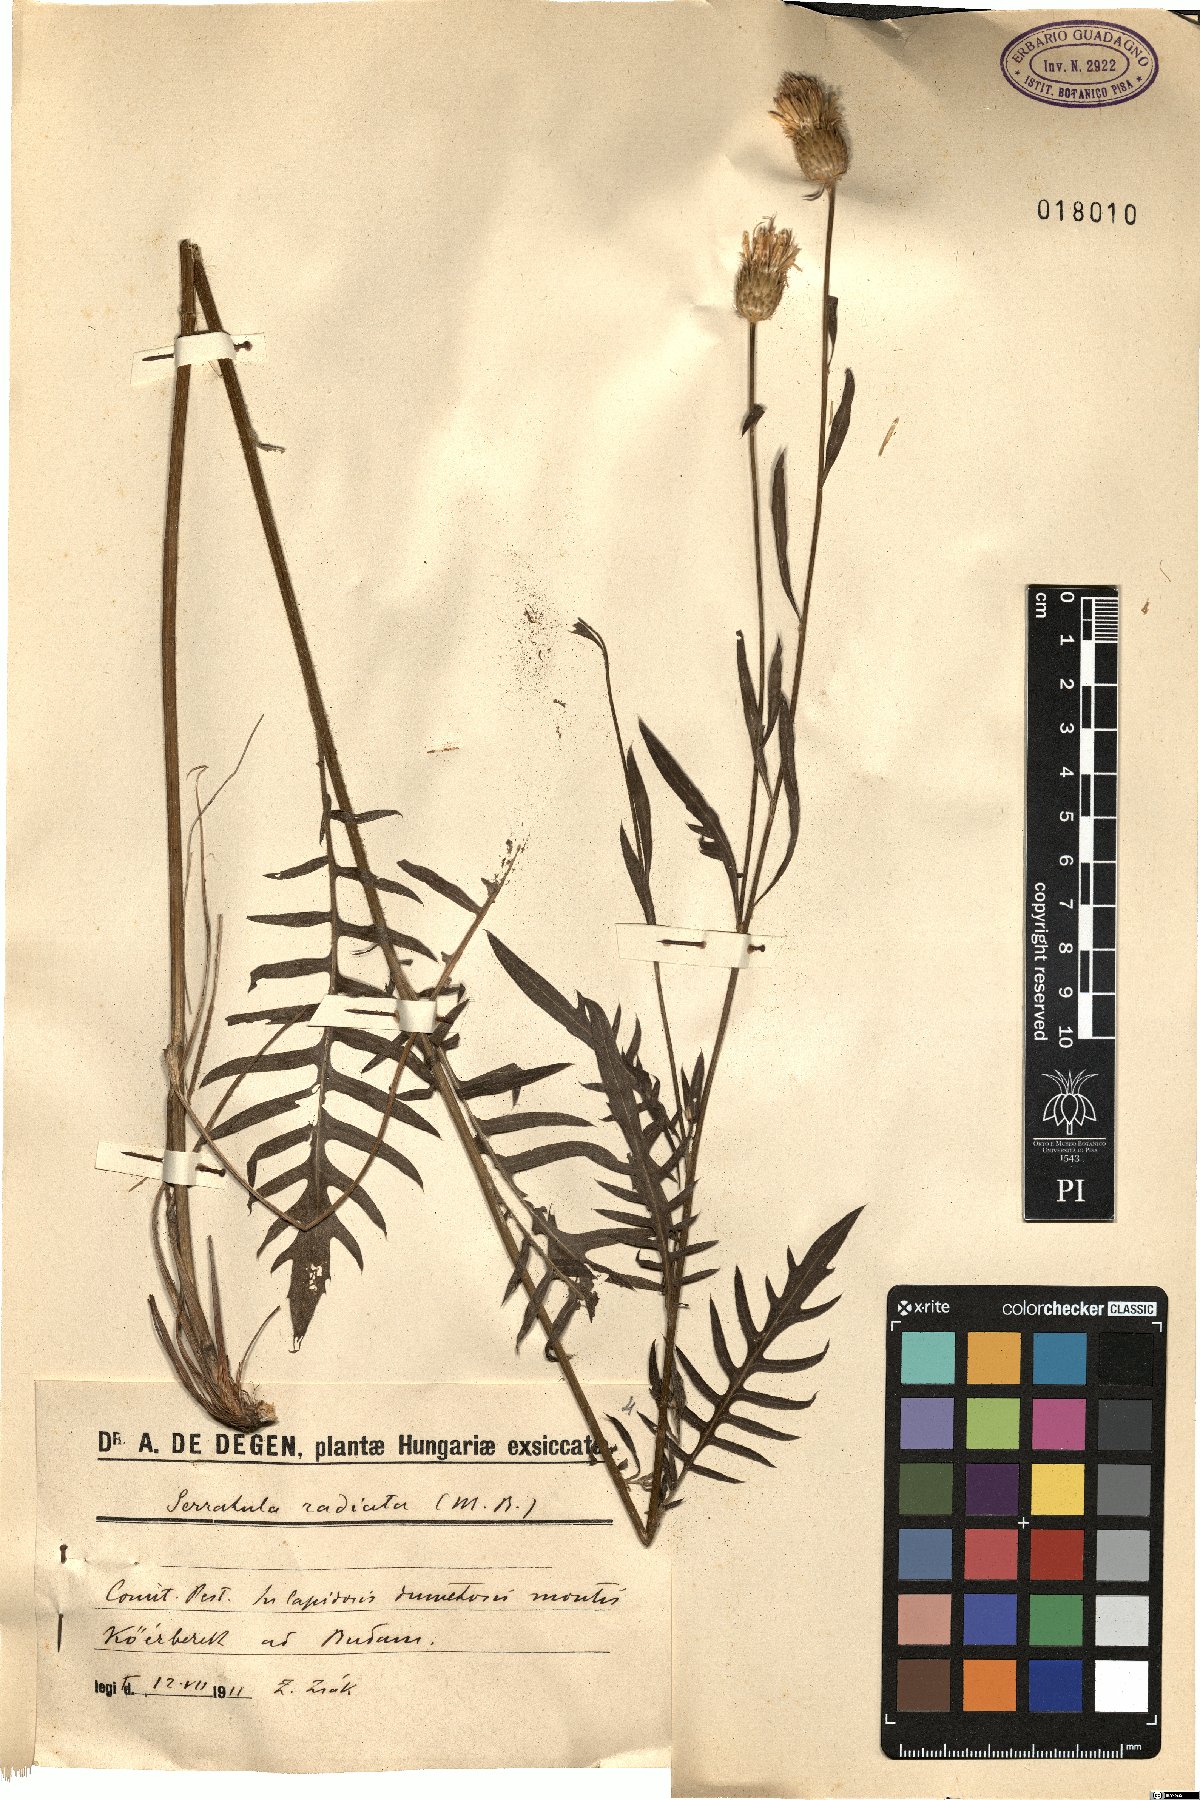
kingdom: Plantae
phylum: Tracheophyta
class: Magnoliopsida
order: Asterales
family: Asteraceae
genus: Klasea
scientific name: Klasea radiata
